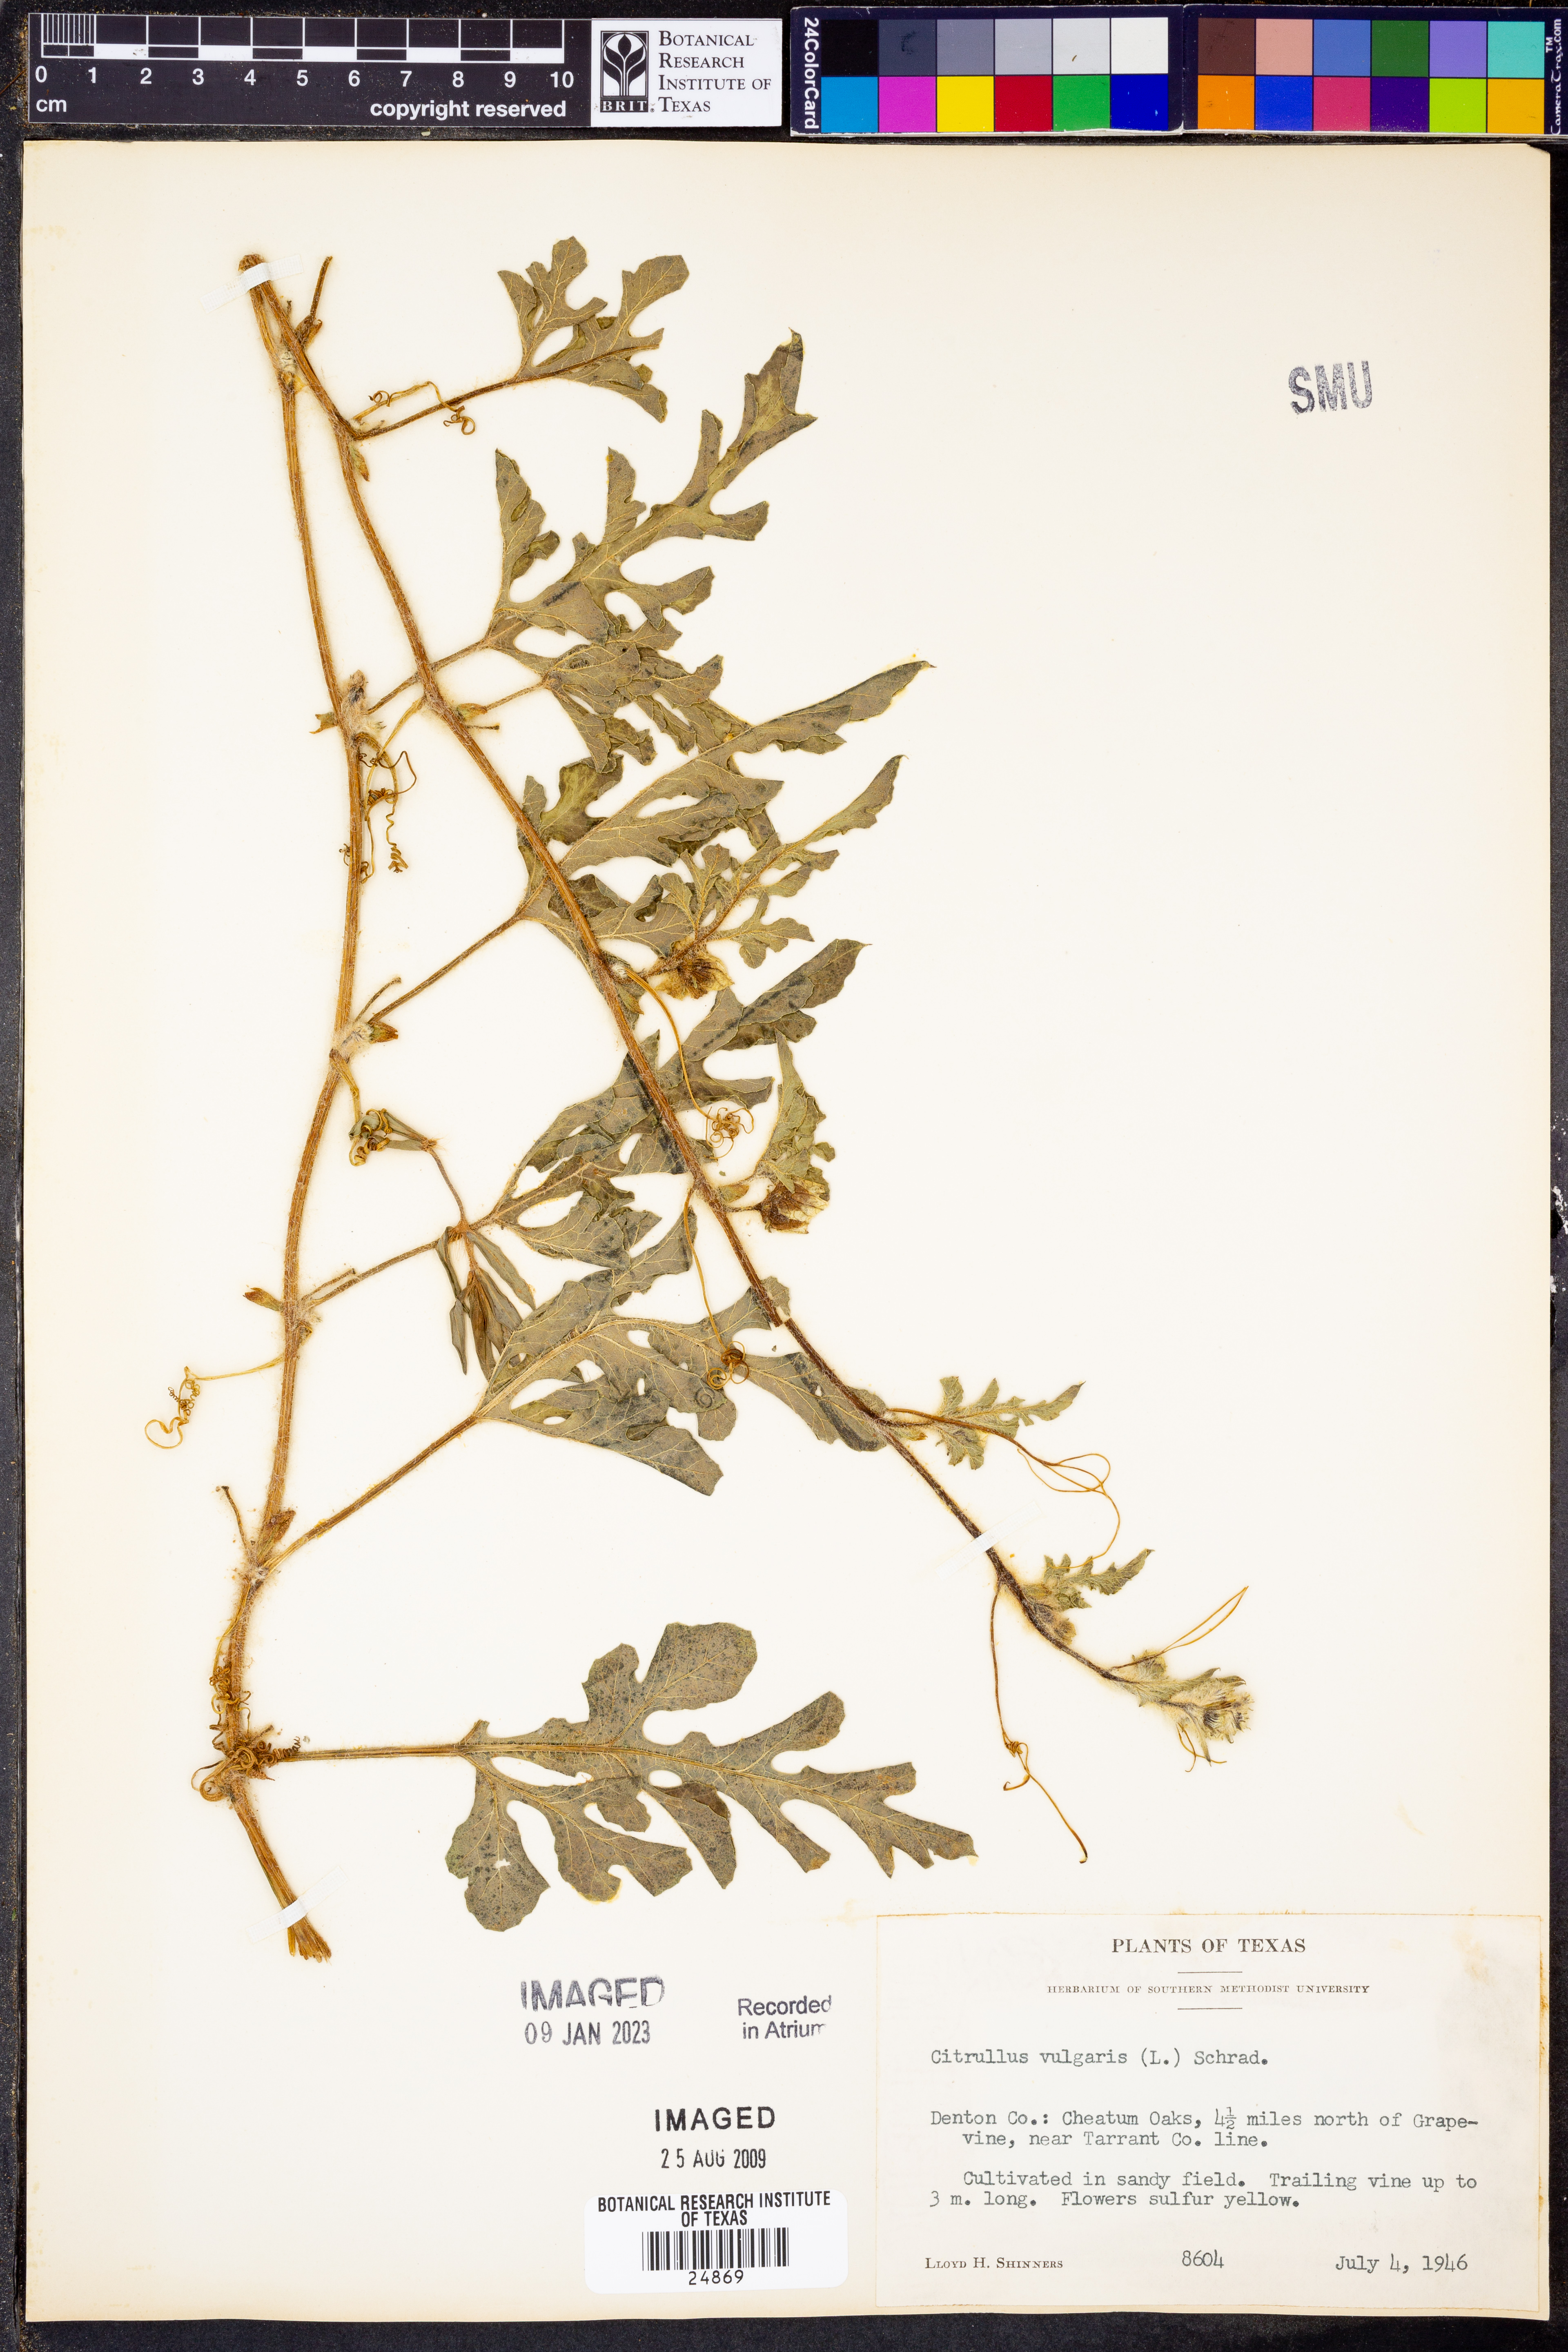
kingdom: Plantae
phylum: Tracheophyta
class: Magnoliopsida
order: Cucurbitales
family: Cucurbitaceae
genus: Citrullus
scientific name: Citrullus lanatus
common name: Watermelon
